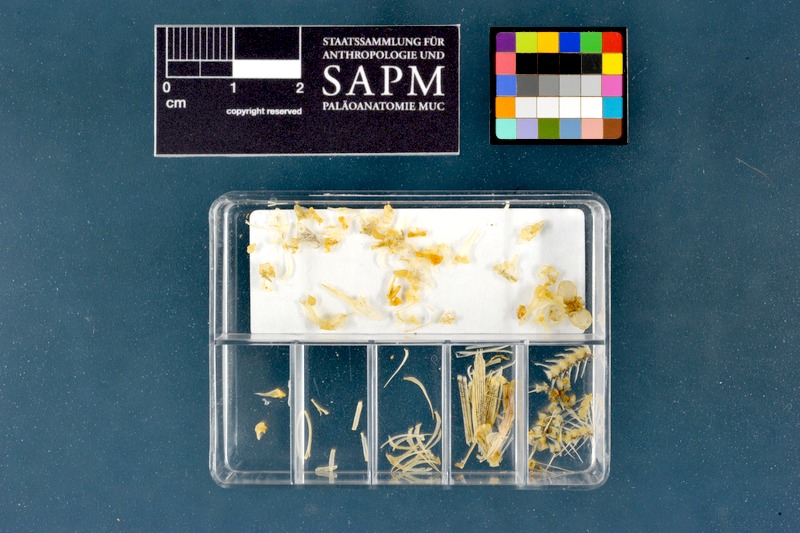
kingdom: Animalia
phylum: Chordata
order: Cypriniformes
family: Nemacheilidae
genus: Barbatula
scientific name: Barbatula barbatula
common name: Stone loach
